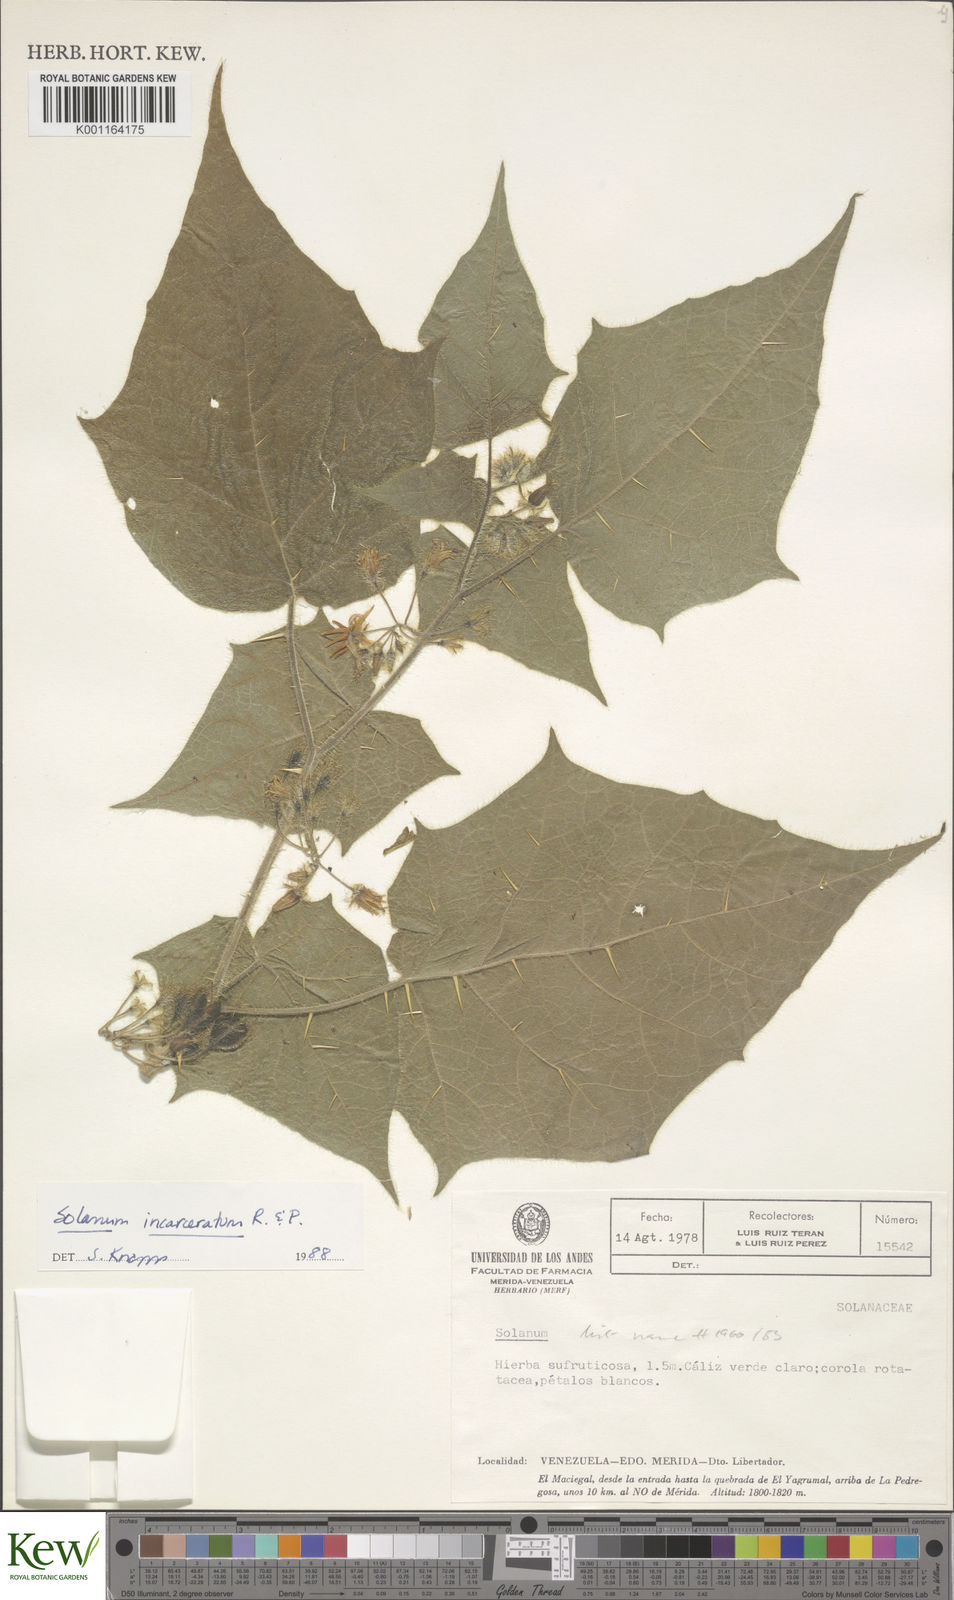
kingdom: Plantae
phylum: Tracheophyta
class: Magnoliopsida
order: Solanales
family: Solanaceae
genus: Solanum
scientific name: Solanum incarceratum
